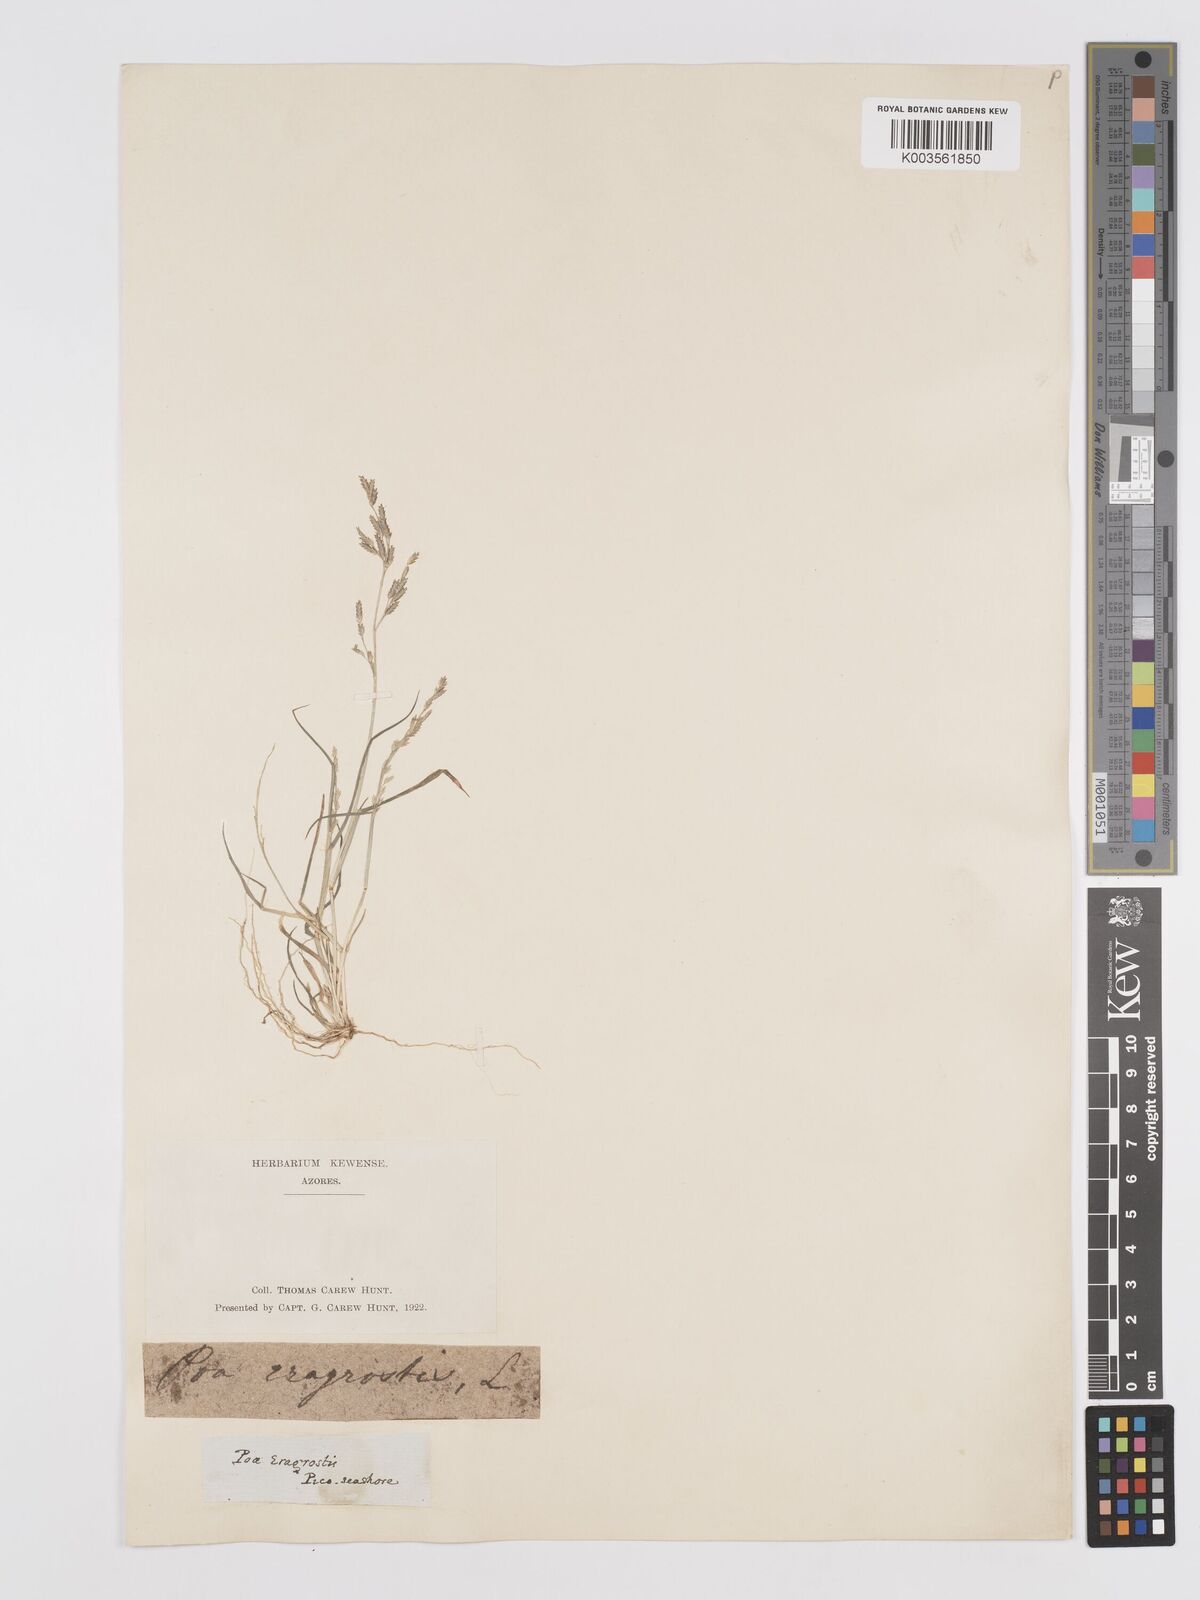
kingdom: Plantae
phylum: Tracheophyta
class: Liliopsida
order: Poales
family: Poaceae
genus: Eragrostis
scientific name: Eragrostis minor
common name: Small love-grass
